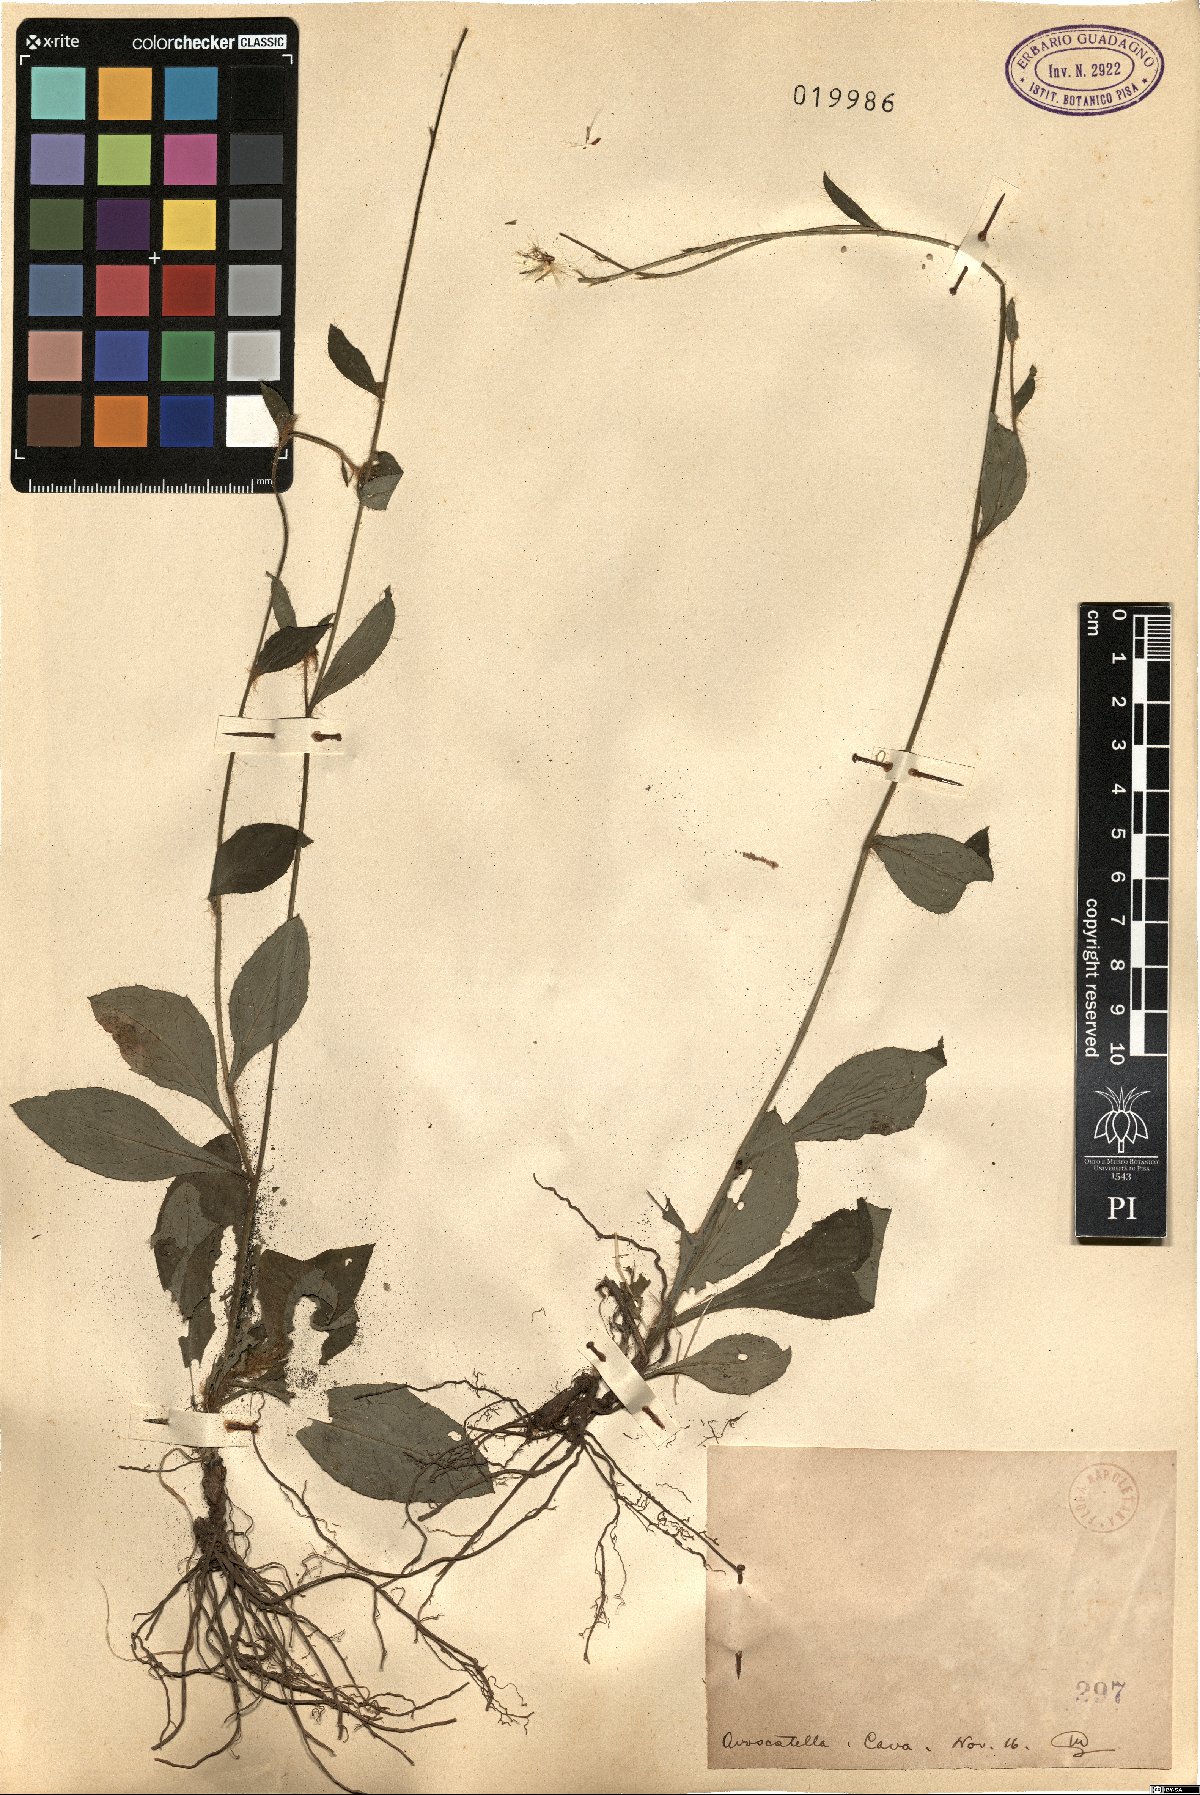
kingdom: Plantae
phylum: Tracheophyta
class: Magnoliopsida
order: Asterales
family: Asteraceae
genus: Hieracium
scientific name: Hieracium
